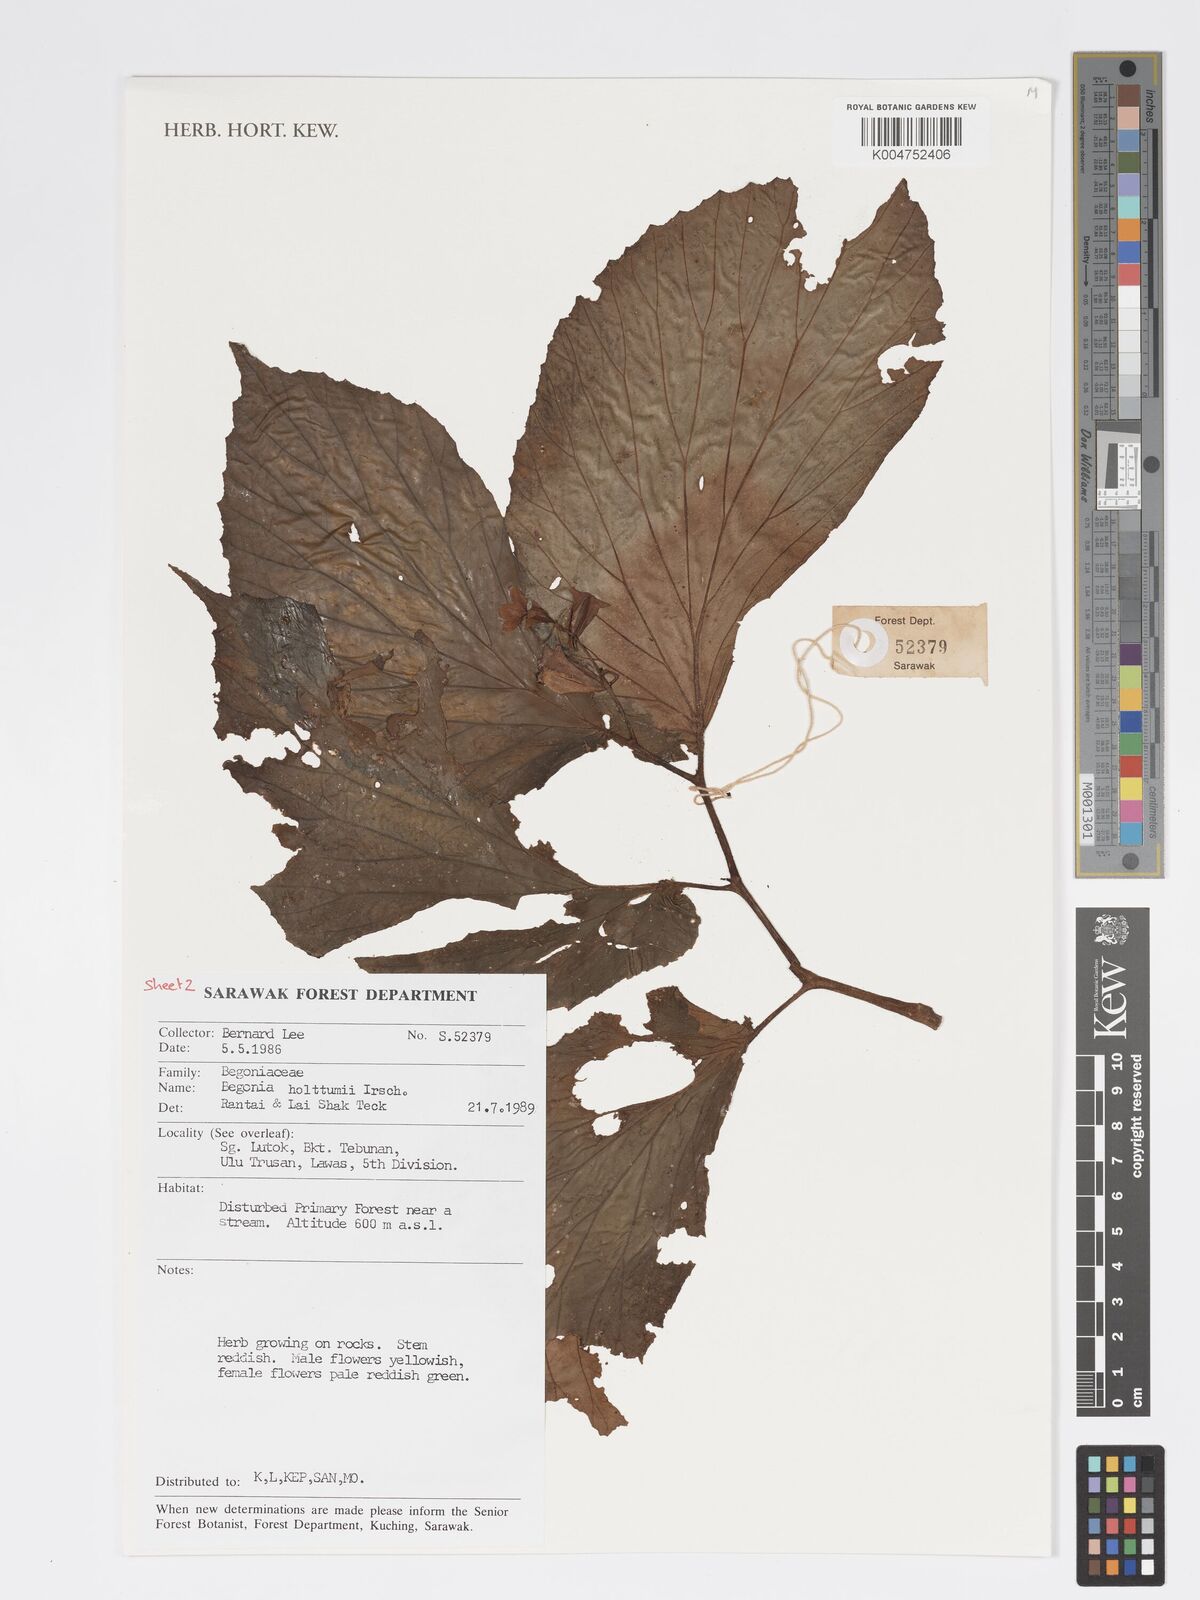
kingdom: Plantae
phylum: Tracheophyta
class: Magnoliopsida
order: Cucurbitales
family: Begoniaceae
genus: Begonia
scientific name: Begonia holttumii
